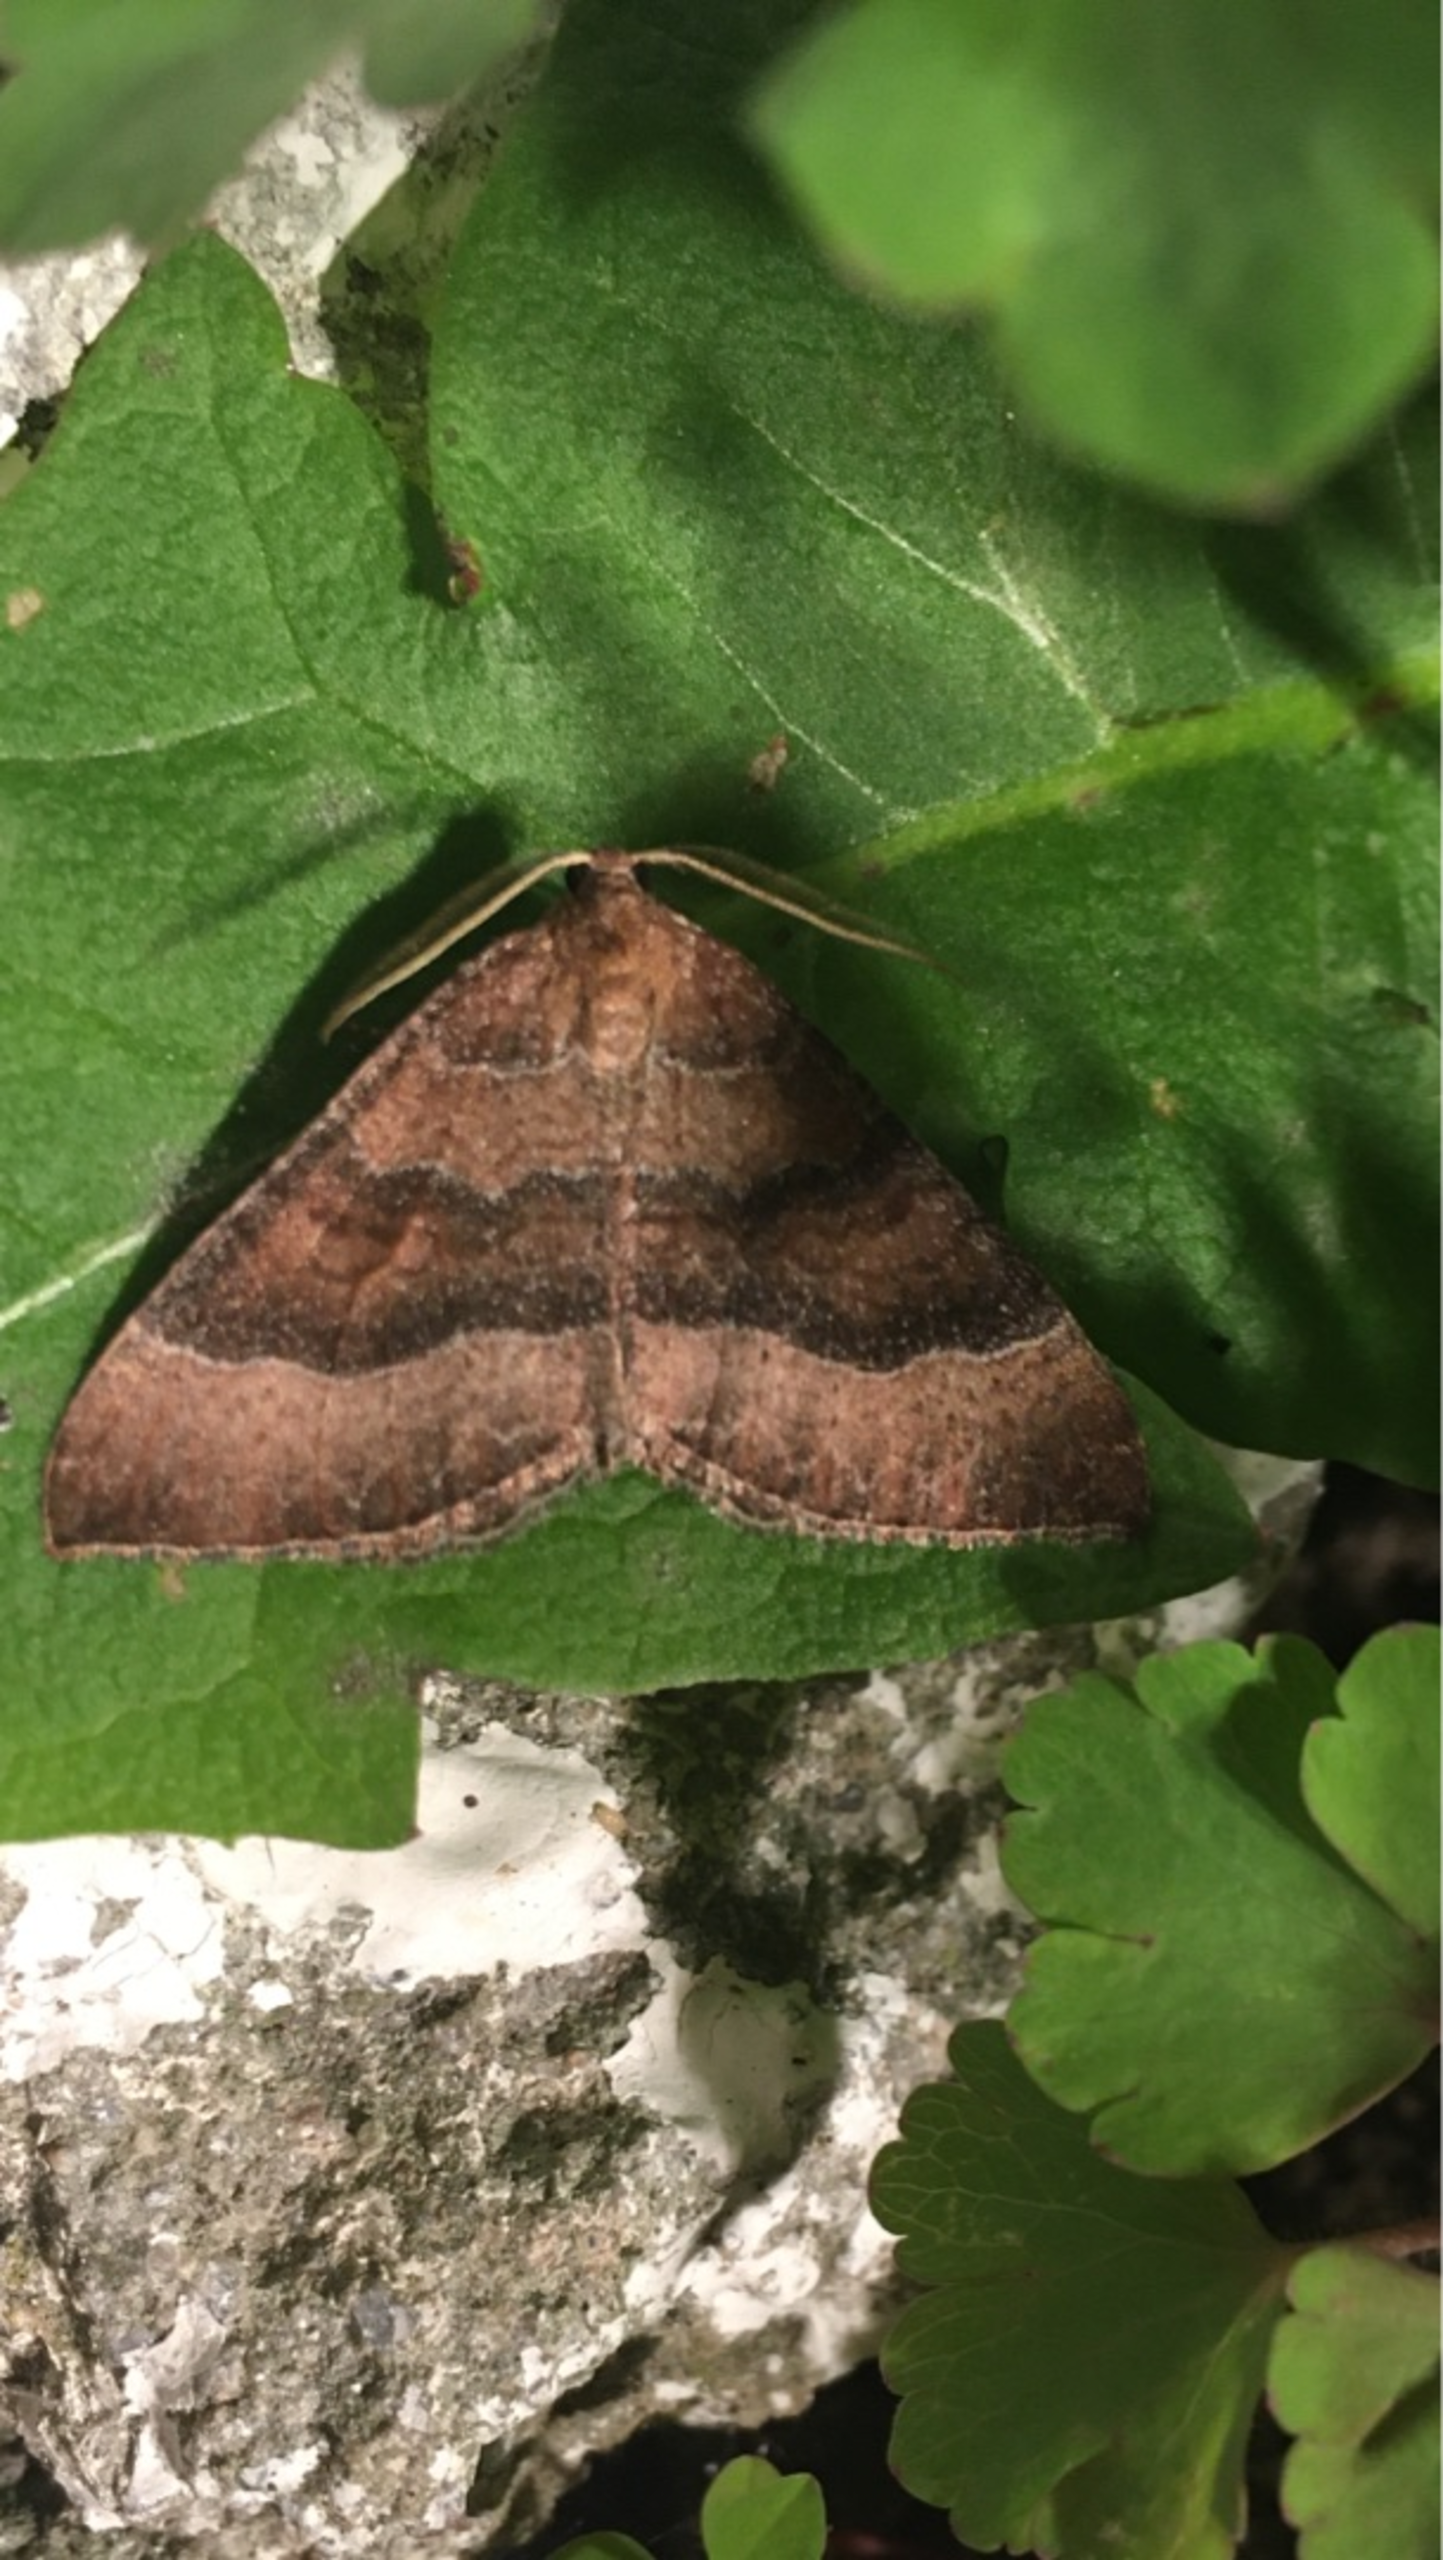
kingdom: Animalia
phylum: Arthropoda
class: Insecta
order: Lepidoptera
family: Geometridae
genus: Larentia
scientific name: Larentia clavaria
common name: Katostmåler
